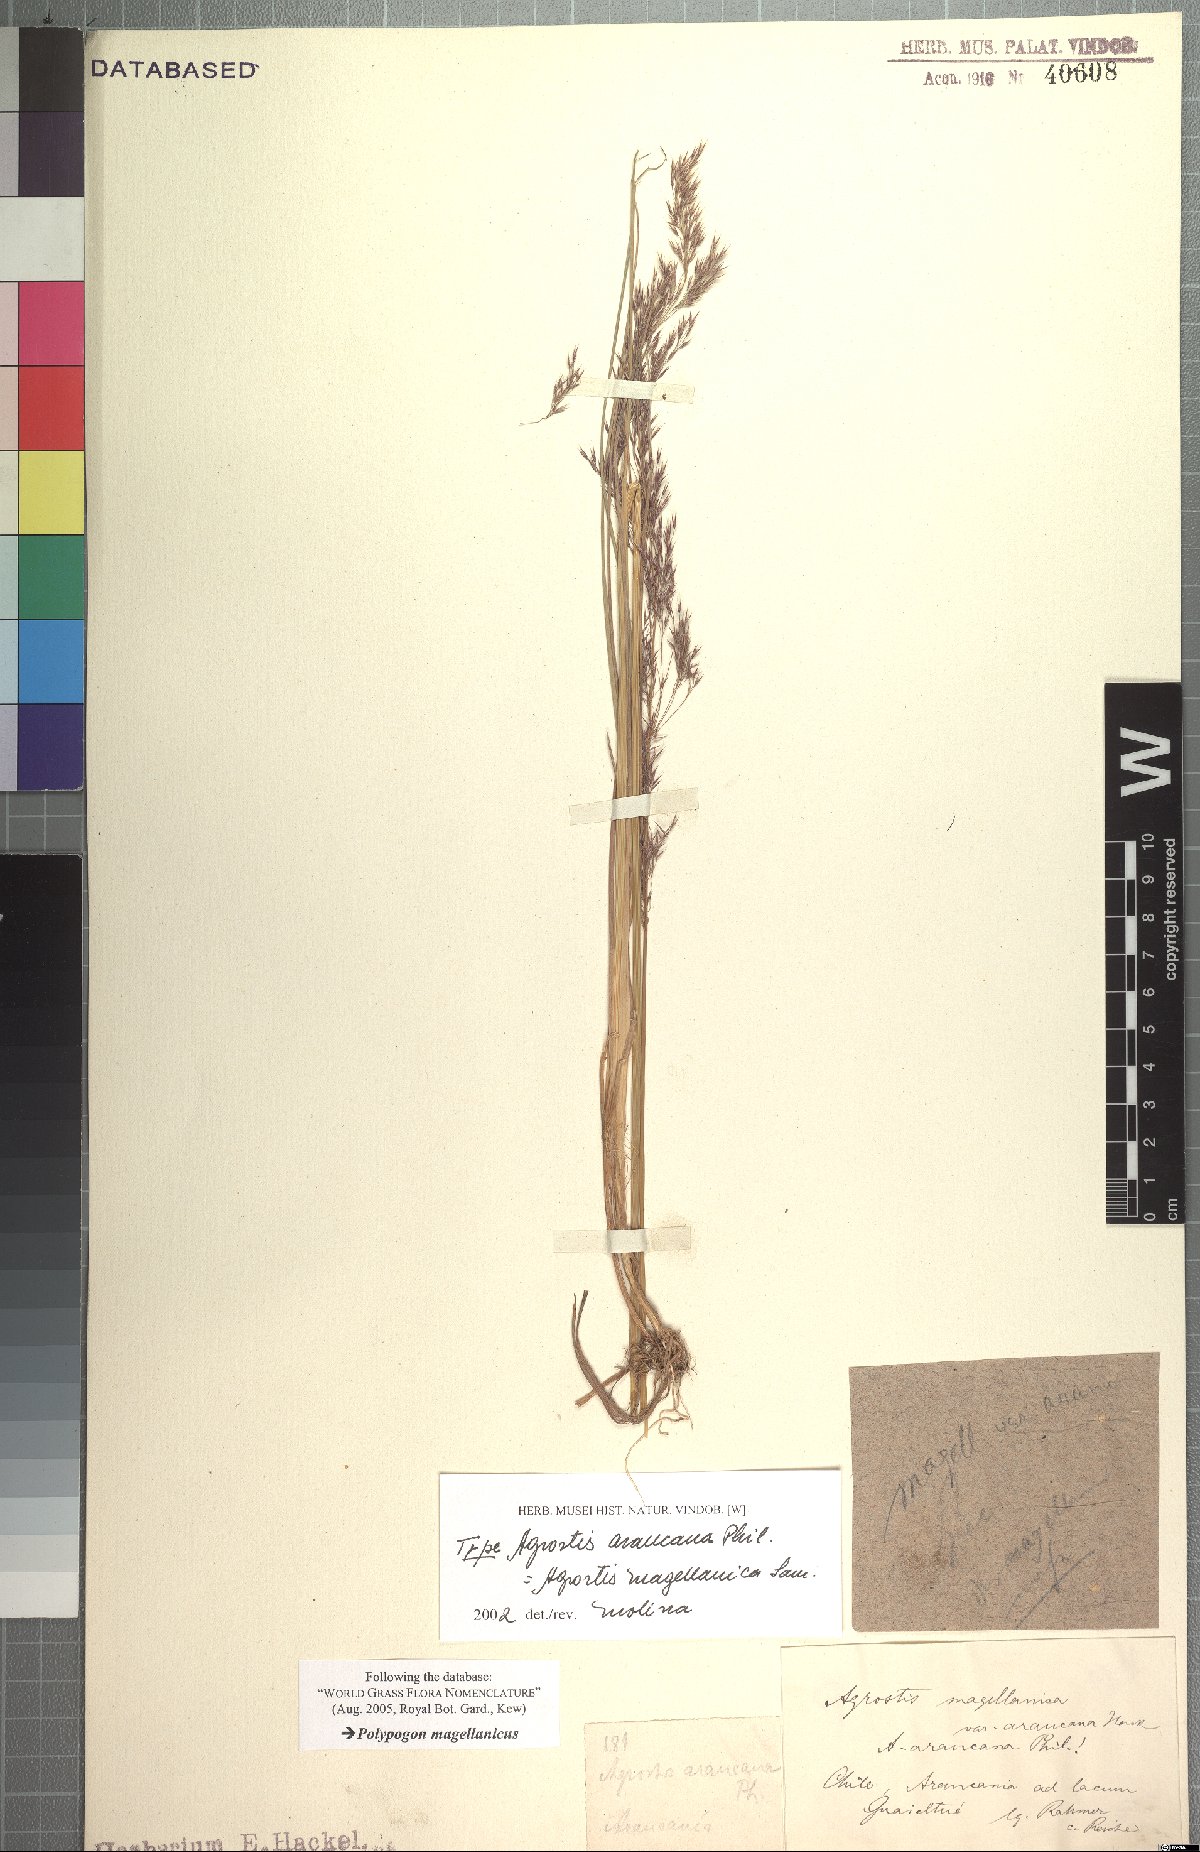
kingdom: Plantae
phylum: Tracheophyta
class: Liliopsida
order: Poales
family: Poaceae
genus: Polypogon
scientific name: Polypogon magellanicus
